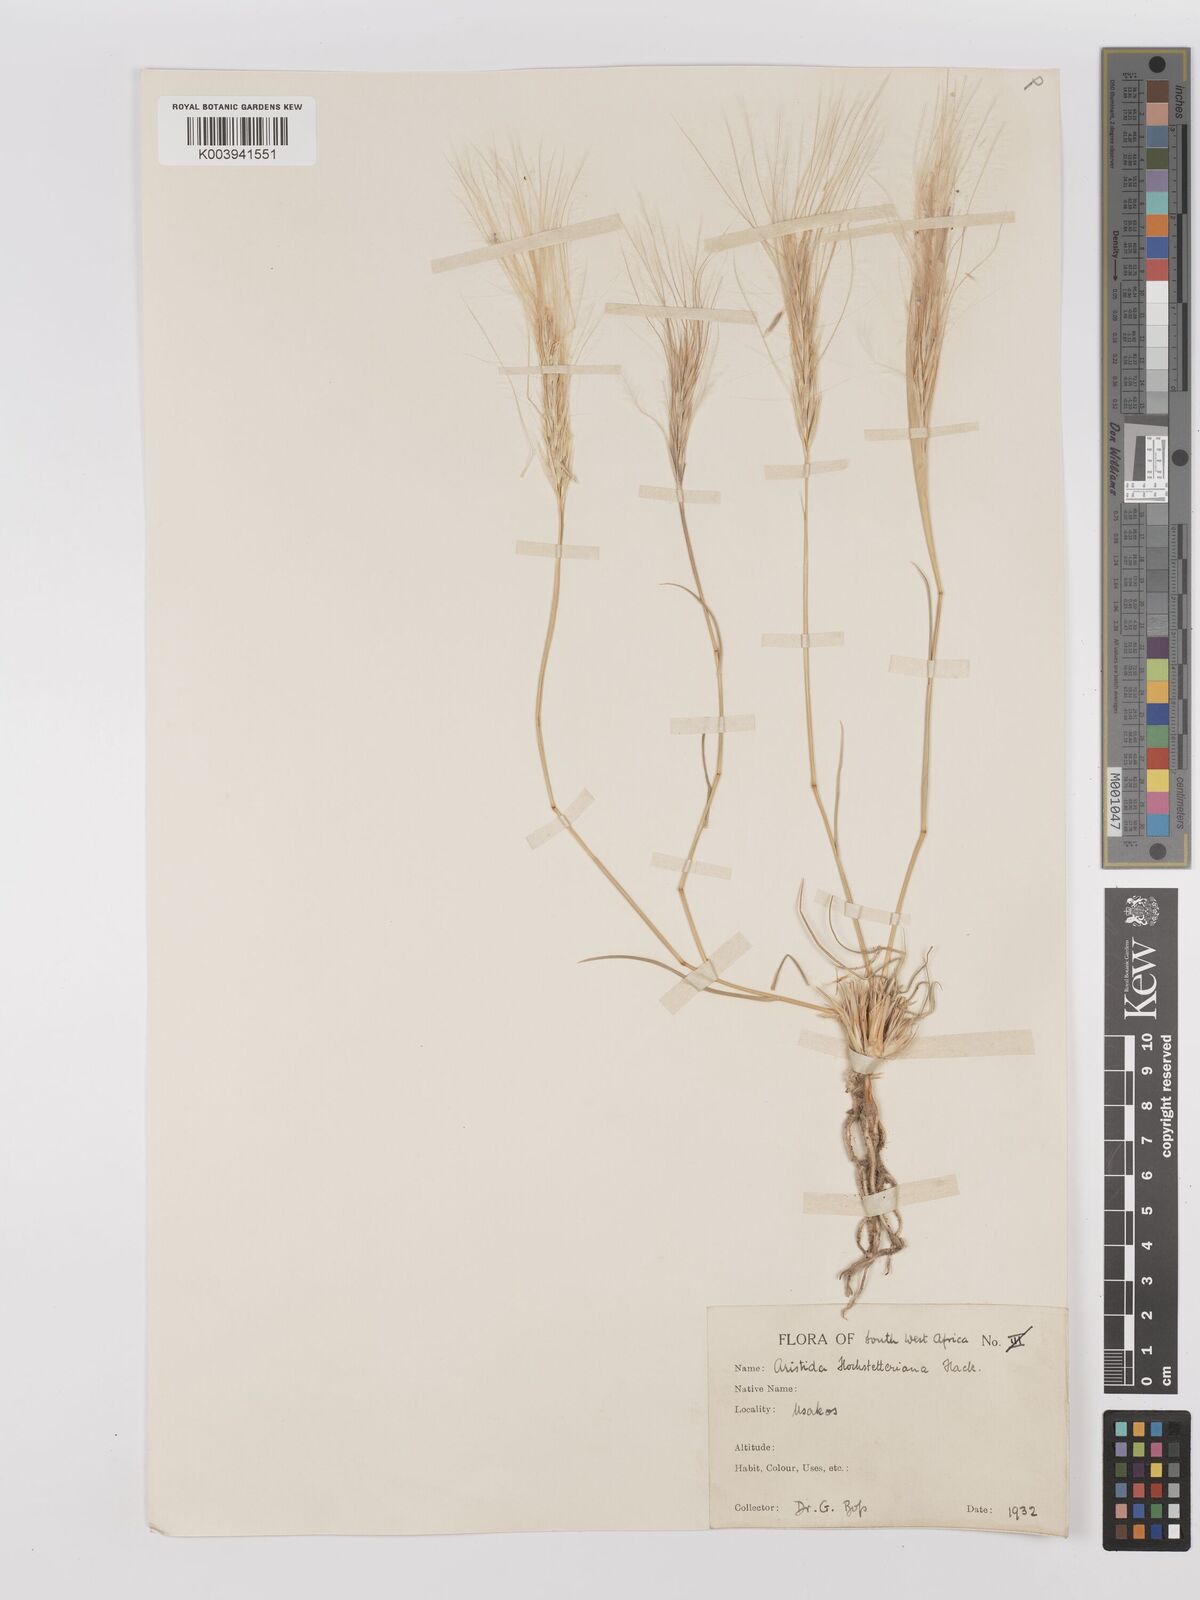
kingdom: Plantae
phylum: Tracheophyta
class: Liliopsida
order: Poales
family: Poaceae
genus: Stipagrostis
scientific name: Stipagrostis hochstetteriana
